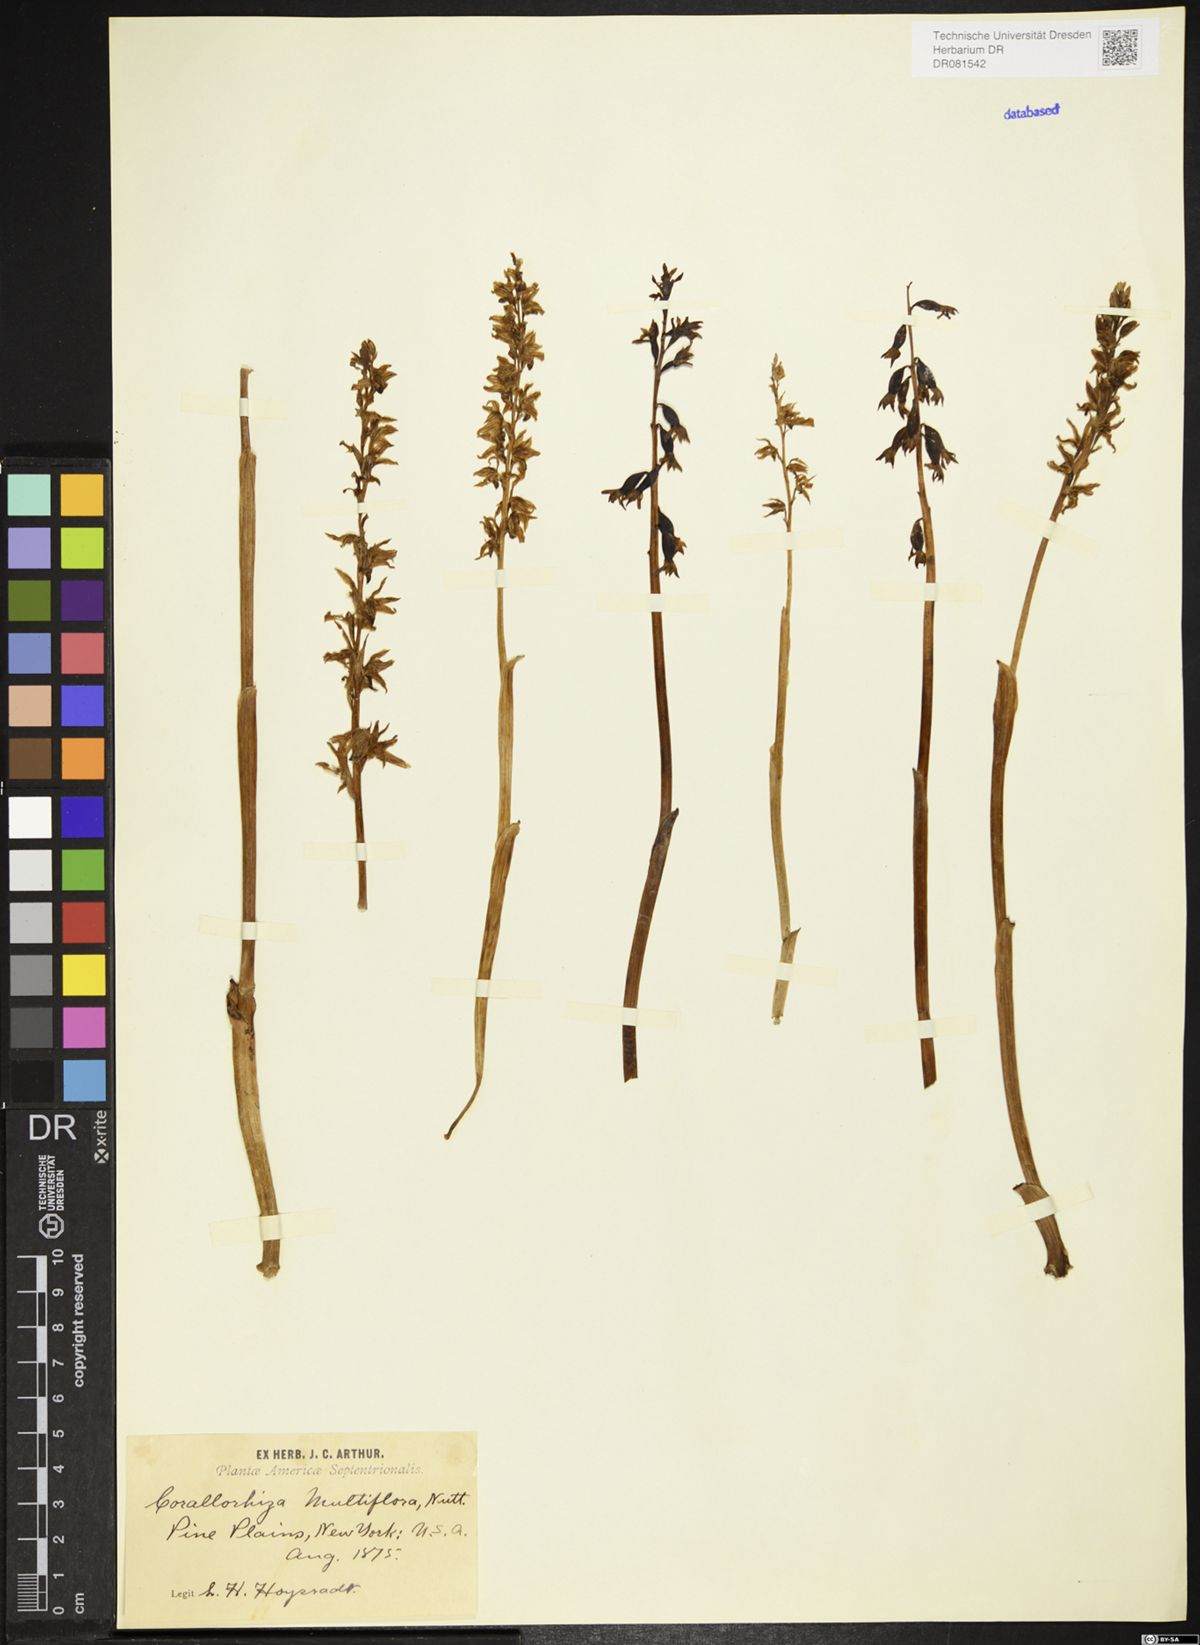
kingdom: Plantae
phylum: Tracheophyta
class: Liliopsida
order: Asparagales
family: Orchidaceae
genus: Corallorhiza
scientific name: Corallorhiza maculata
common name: Spotted coralroot
